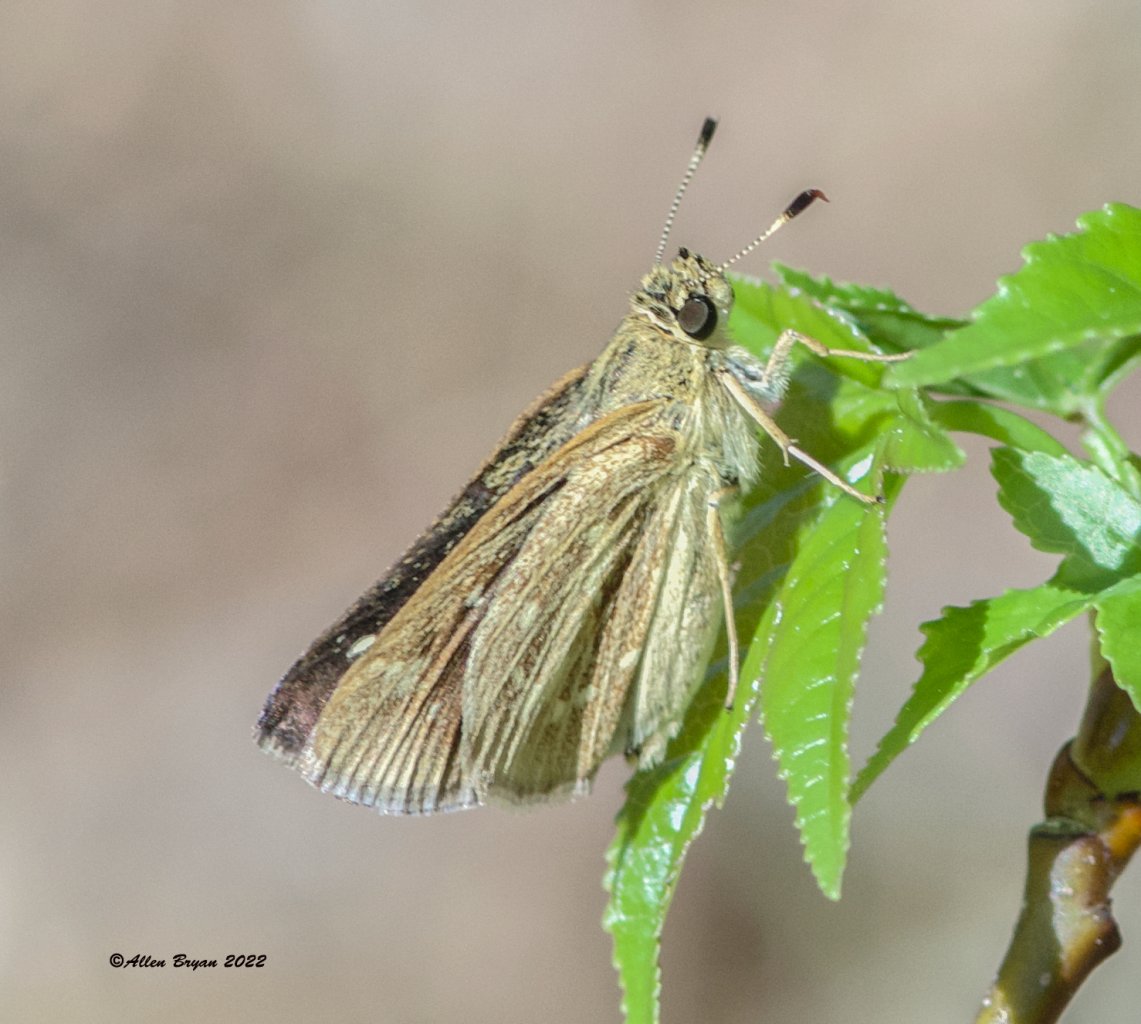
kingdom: Animalia
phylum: Arthropoda
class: Insecta
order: Lepidoptera
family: Hesperiidae
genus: Mastor
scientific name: Mastor carolina
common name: Reversed Roadside-skipper
